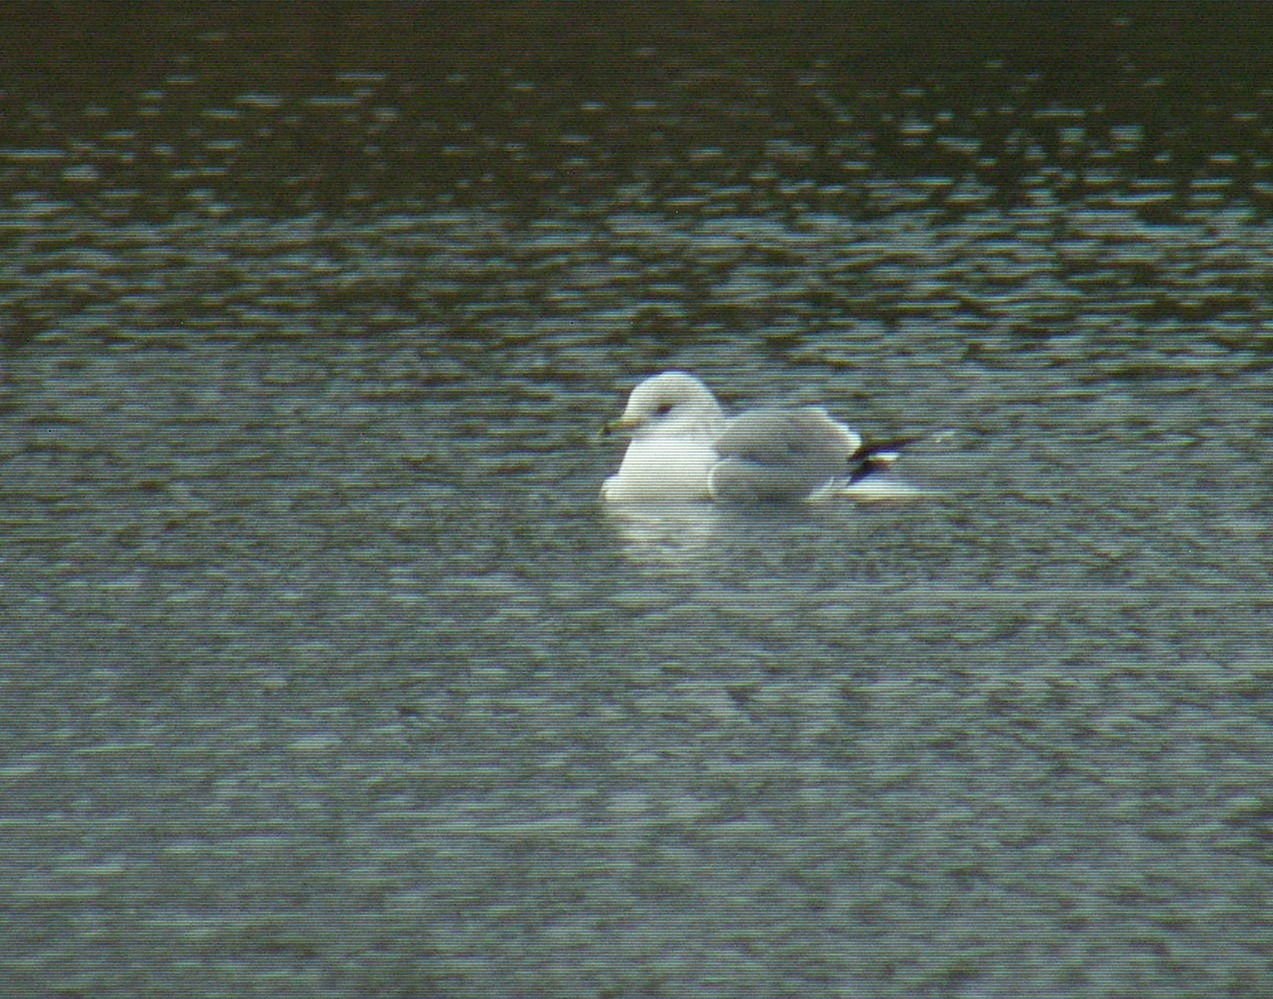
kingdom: Animalia
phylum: Chordata
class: Aves
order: Charadriiformes
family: Laridae
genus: Larus
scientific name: Larus canus
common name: Stormmåge
